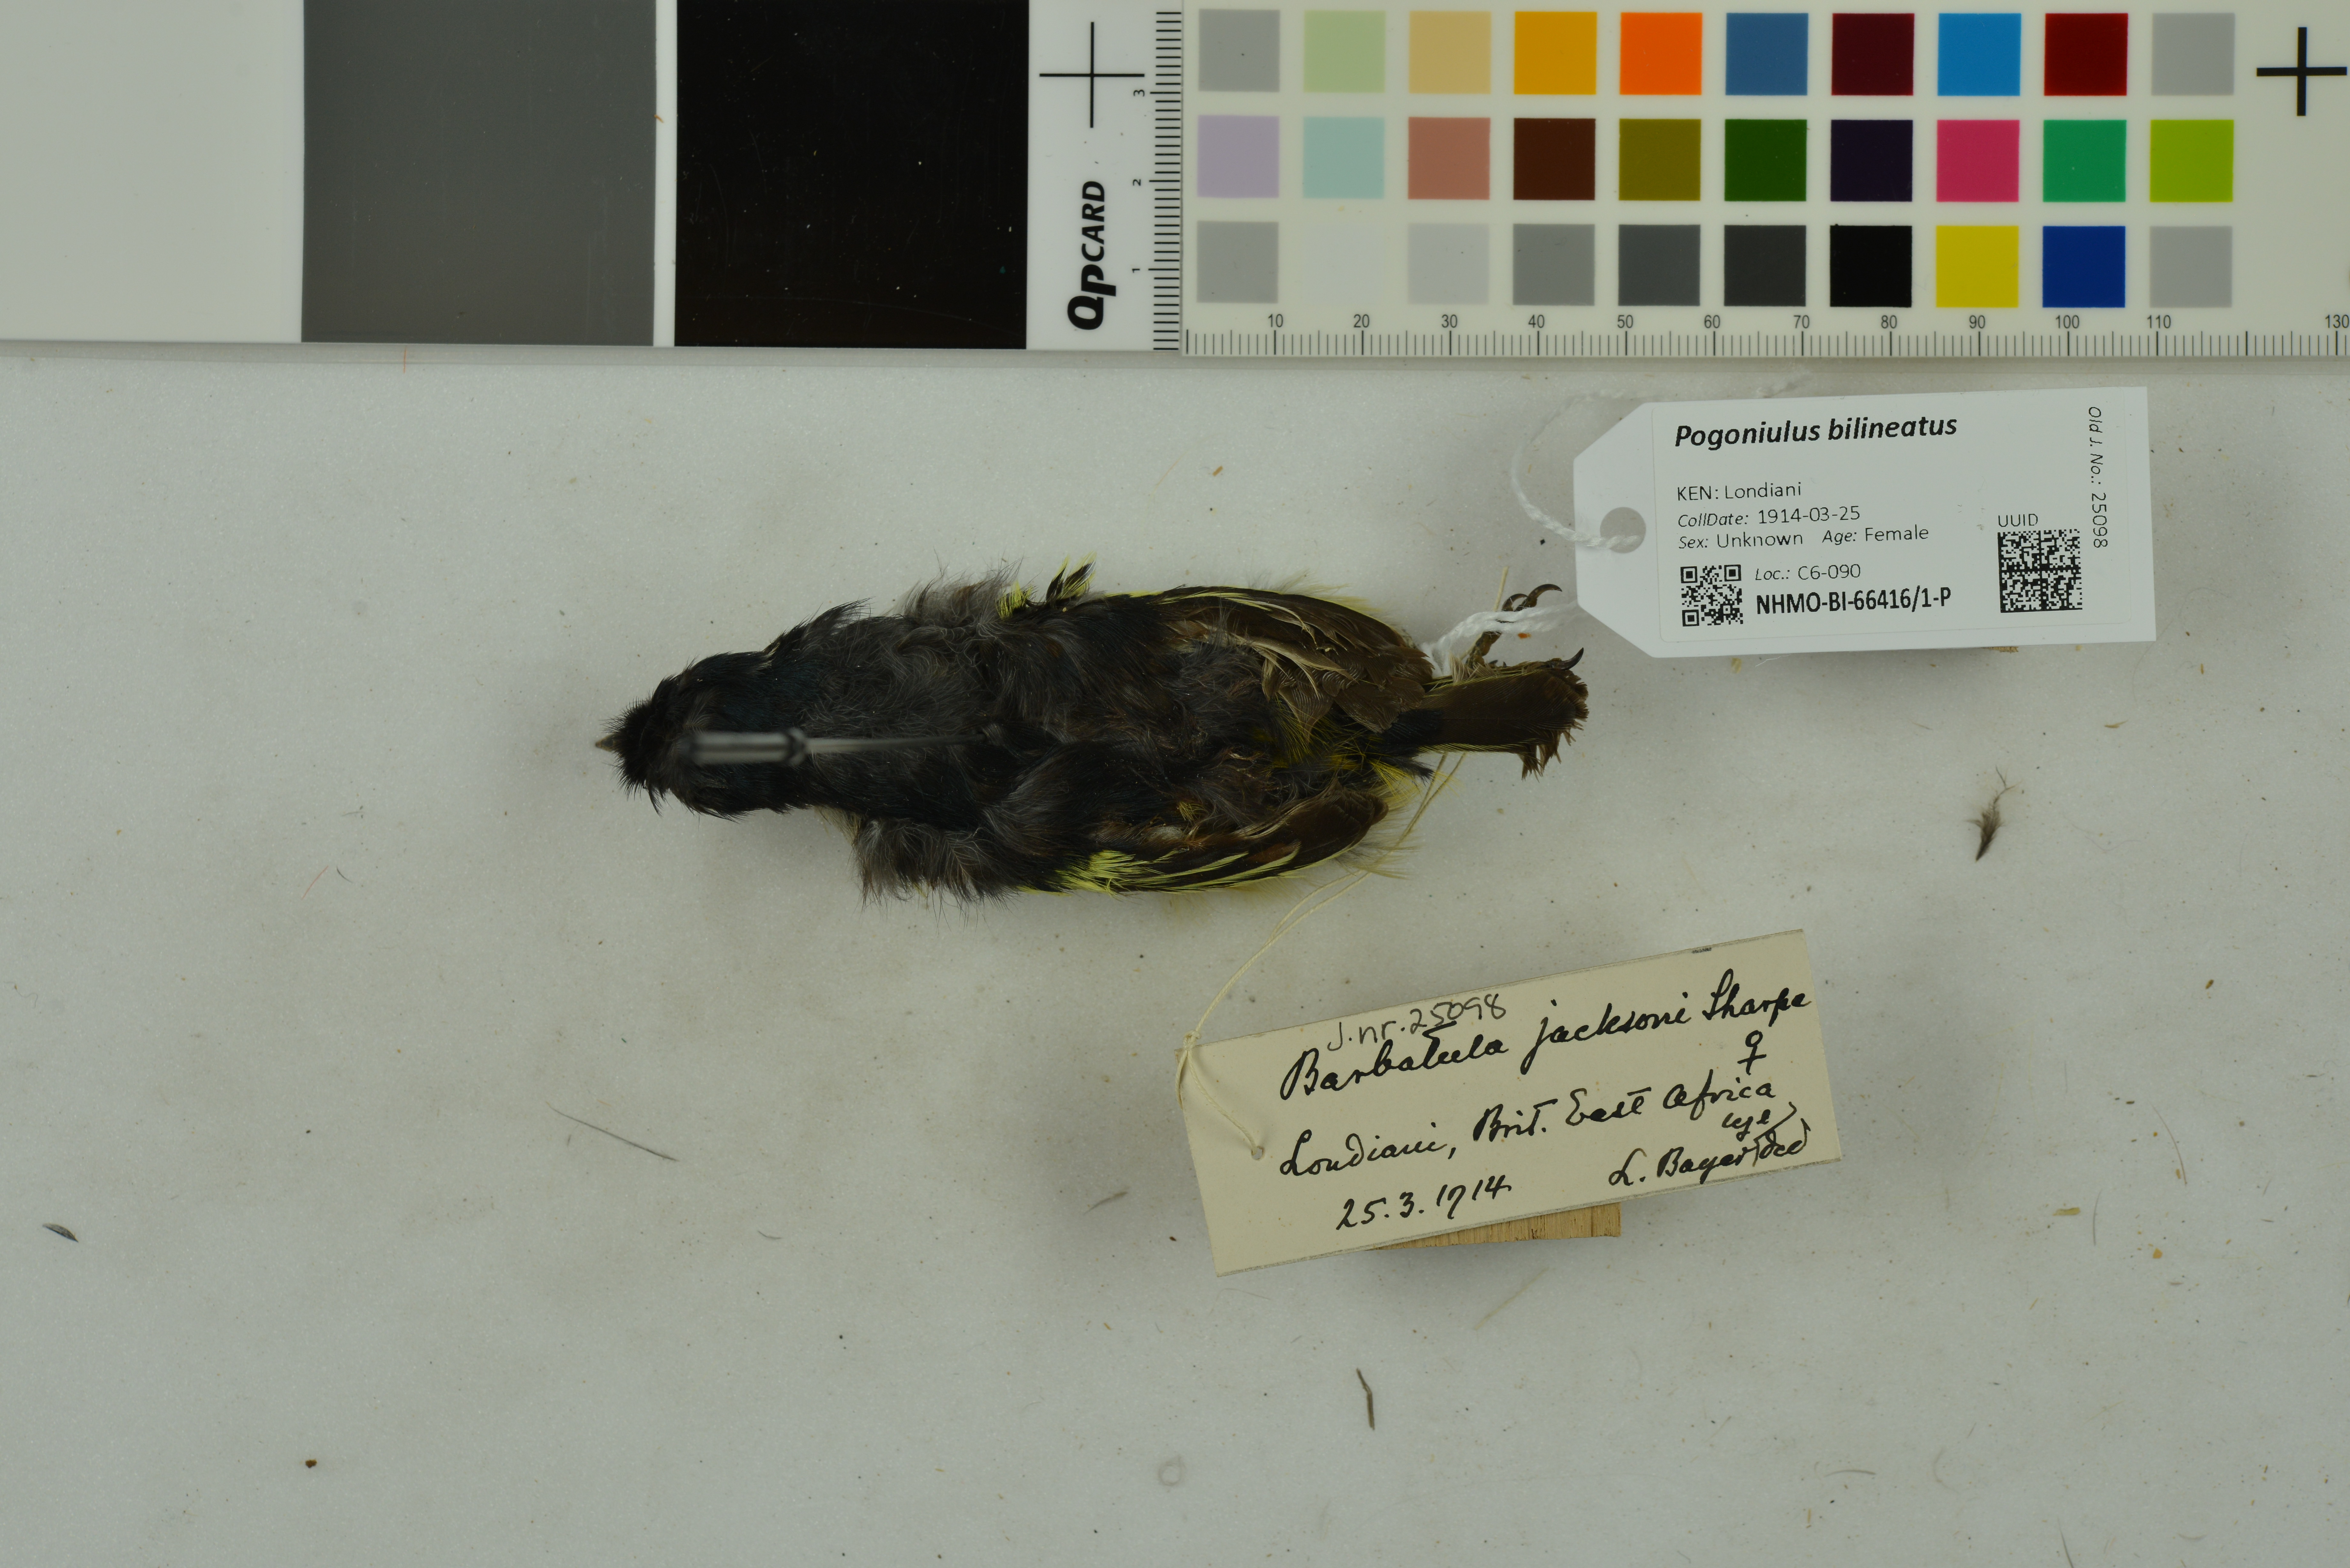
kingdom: Animalia
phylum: Chordata
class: Aves
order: Piciformes
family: Lybiidae
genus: Pogoniulus
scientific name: Pogoniulus bilineatus
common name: Yellow-rumped tinkerbird
